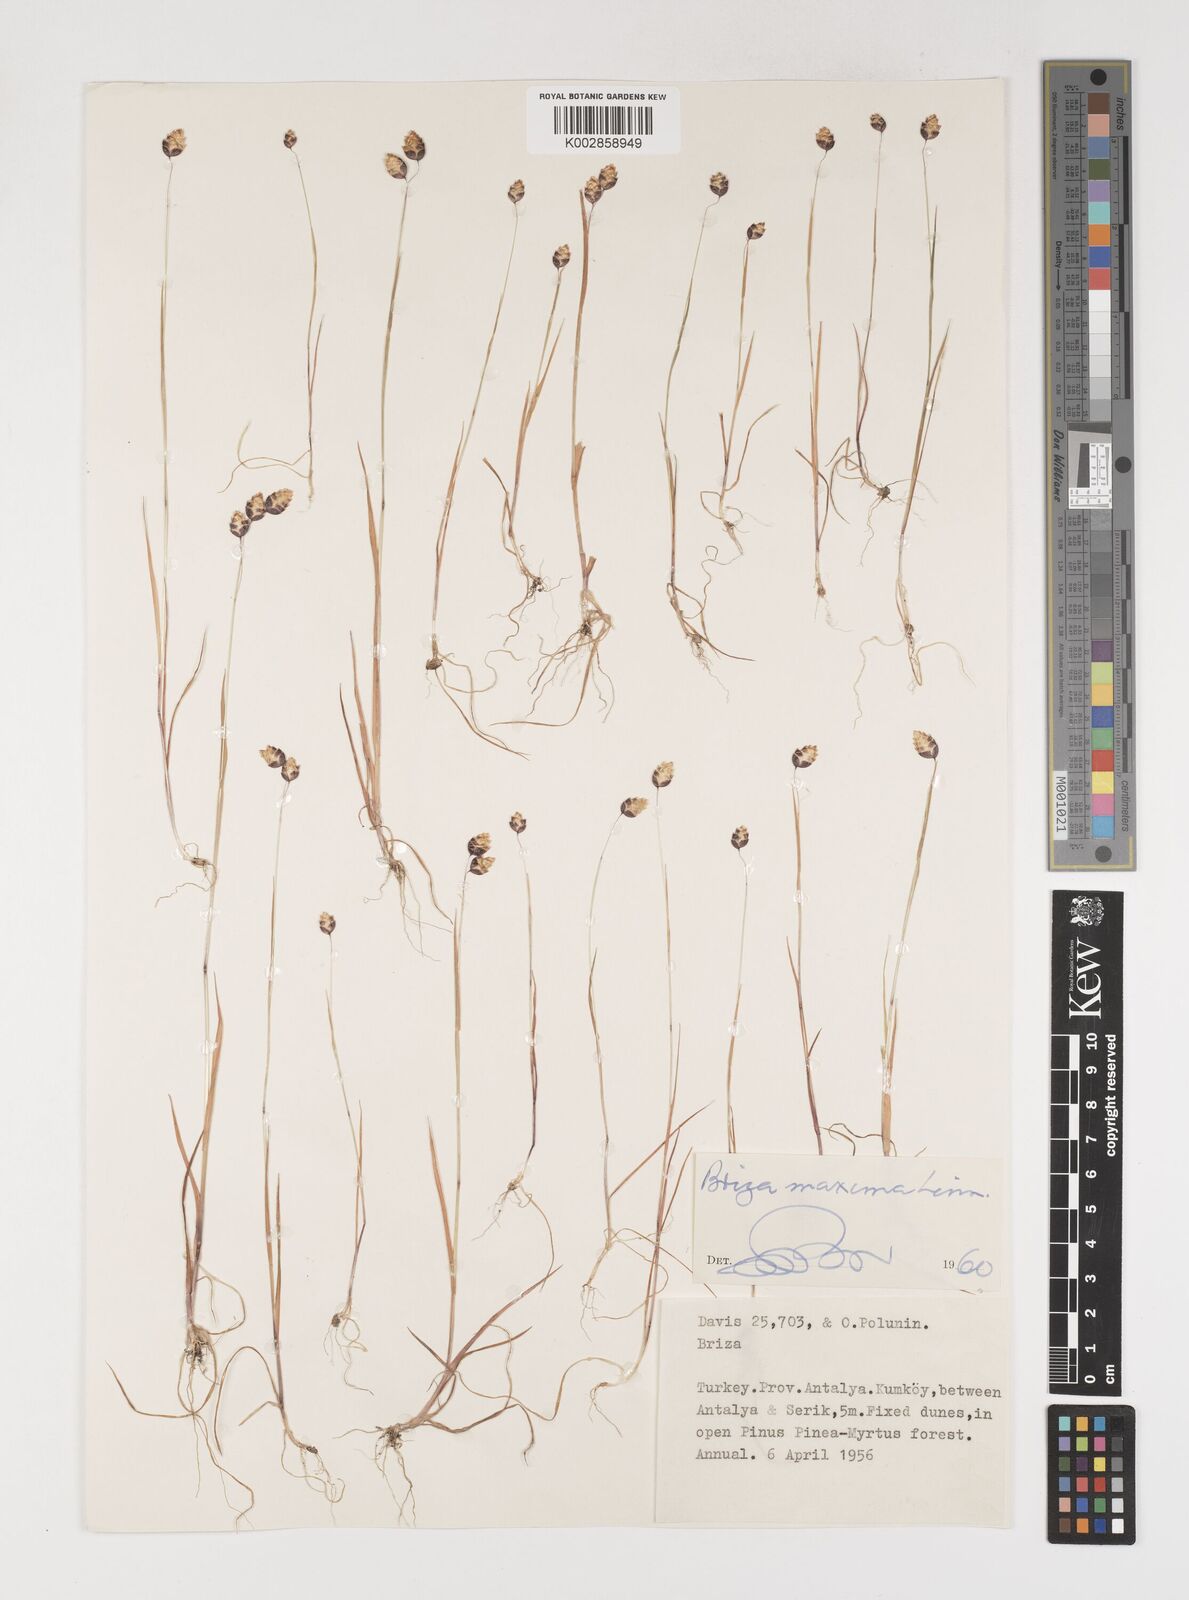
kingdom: Plantae
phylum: Tracheophyta
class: Liliopsida
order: Poales
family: Poaceae
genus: Briza
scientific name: Briza maxima
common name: Big quakinggrass
